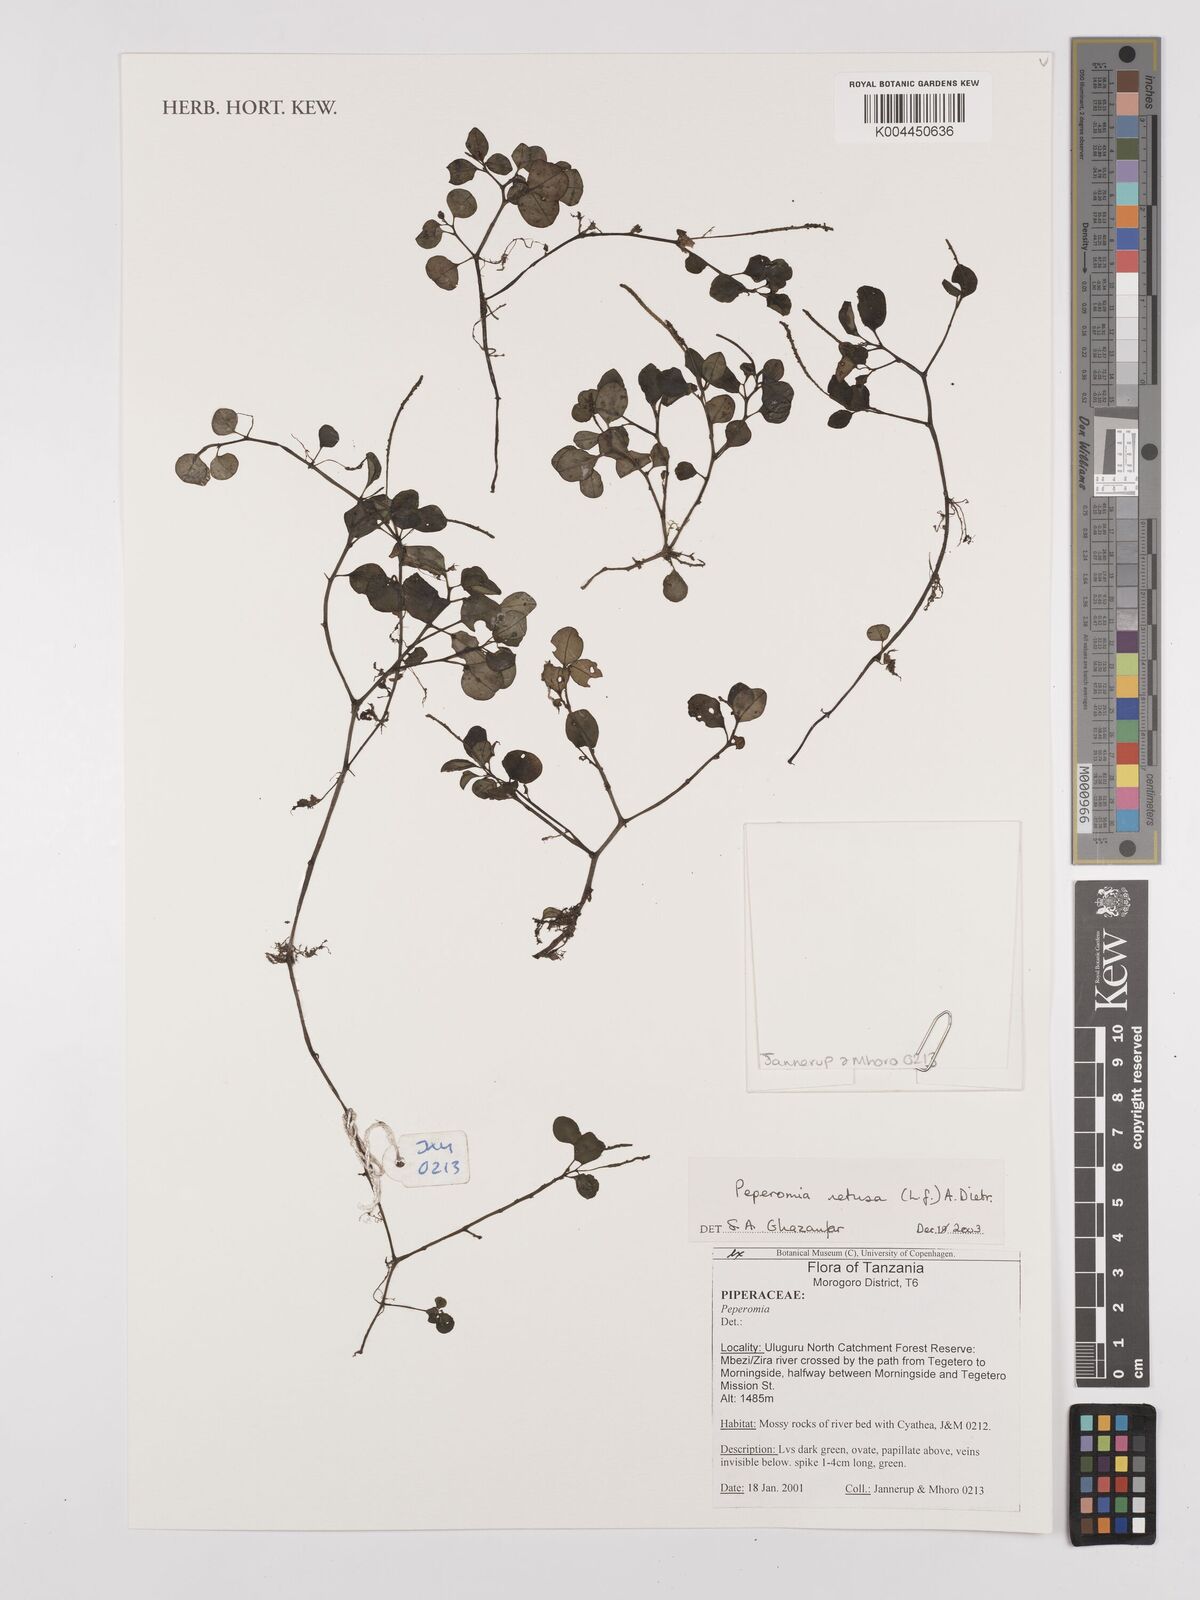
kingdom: Plantae
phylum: Tracheophyta
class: Magnoliopsida
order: Piperales
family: Piperaceae
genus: Peperomia
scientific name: Peperomia retusa
